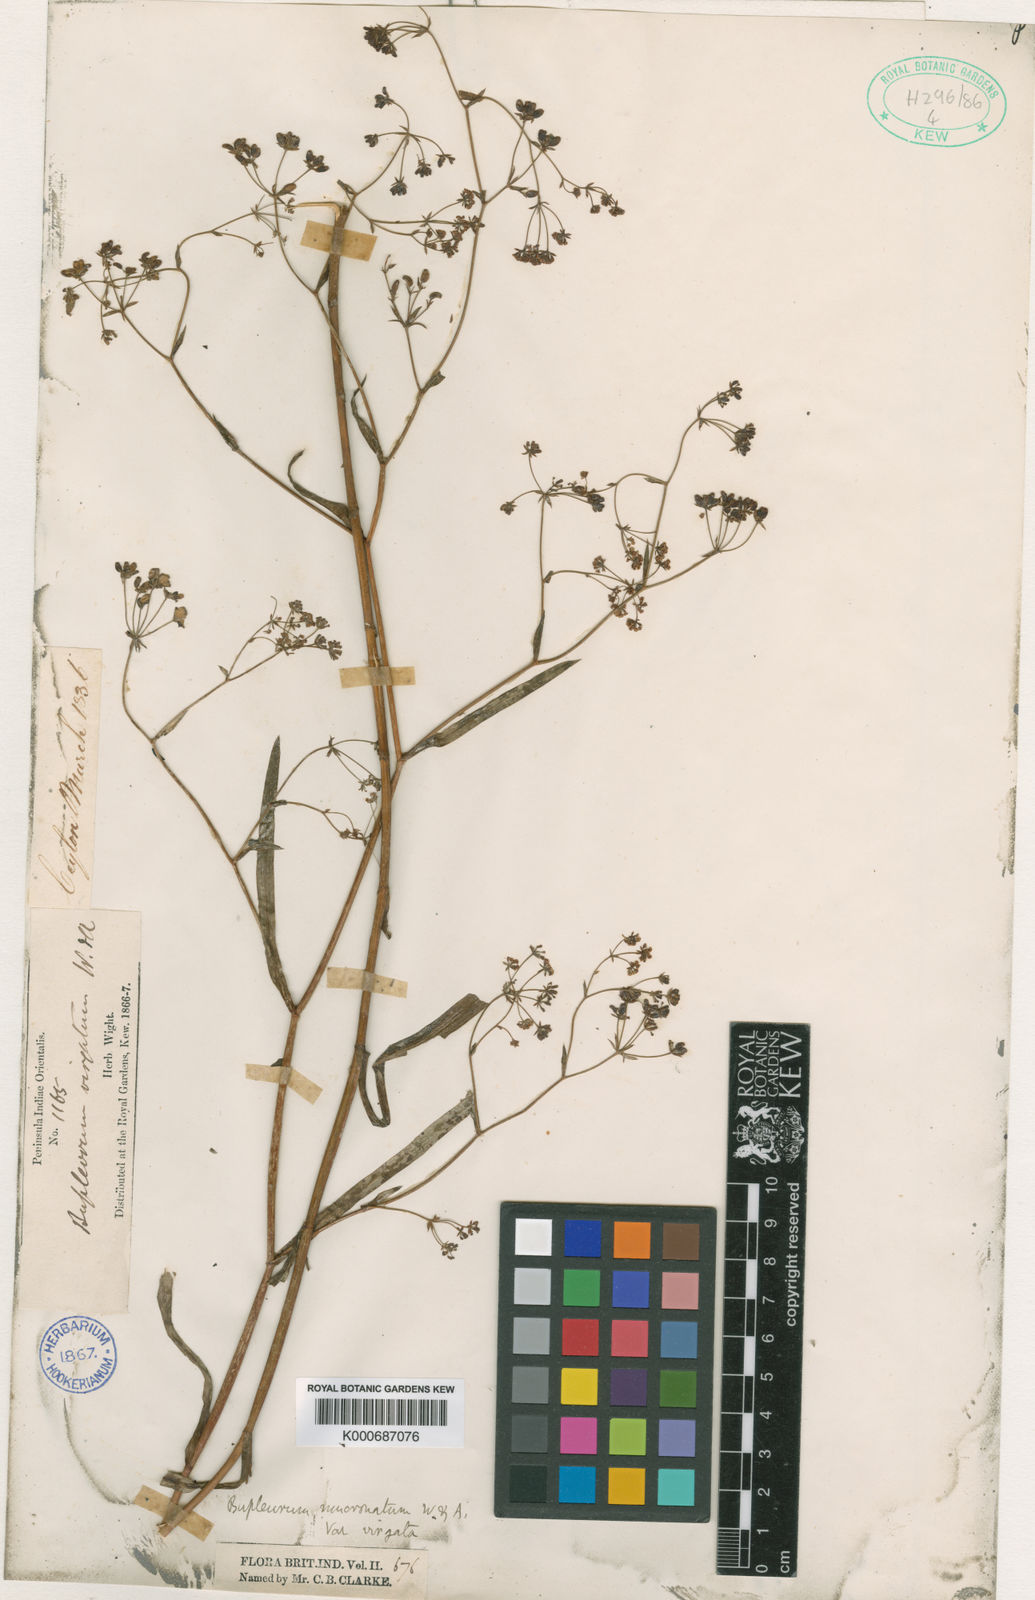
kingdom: Plantae
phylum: Tracheophyta
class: Magnoliopsida
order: Apiales
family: Apiaceae
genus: Bupleurum
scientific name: Bupleurum ramosissimum
